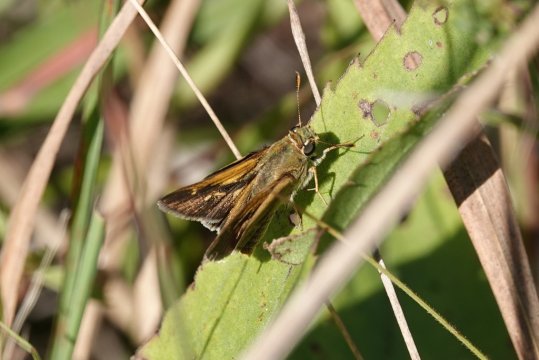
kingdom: Animalia
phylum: Arthropoda
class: Insecta
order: Lepidoptera
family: Hesperiidae
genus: Polites
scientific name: Polites
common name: Crossline Skipper
